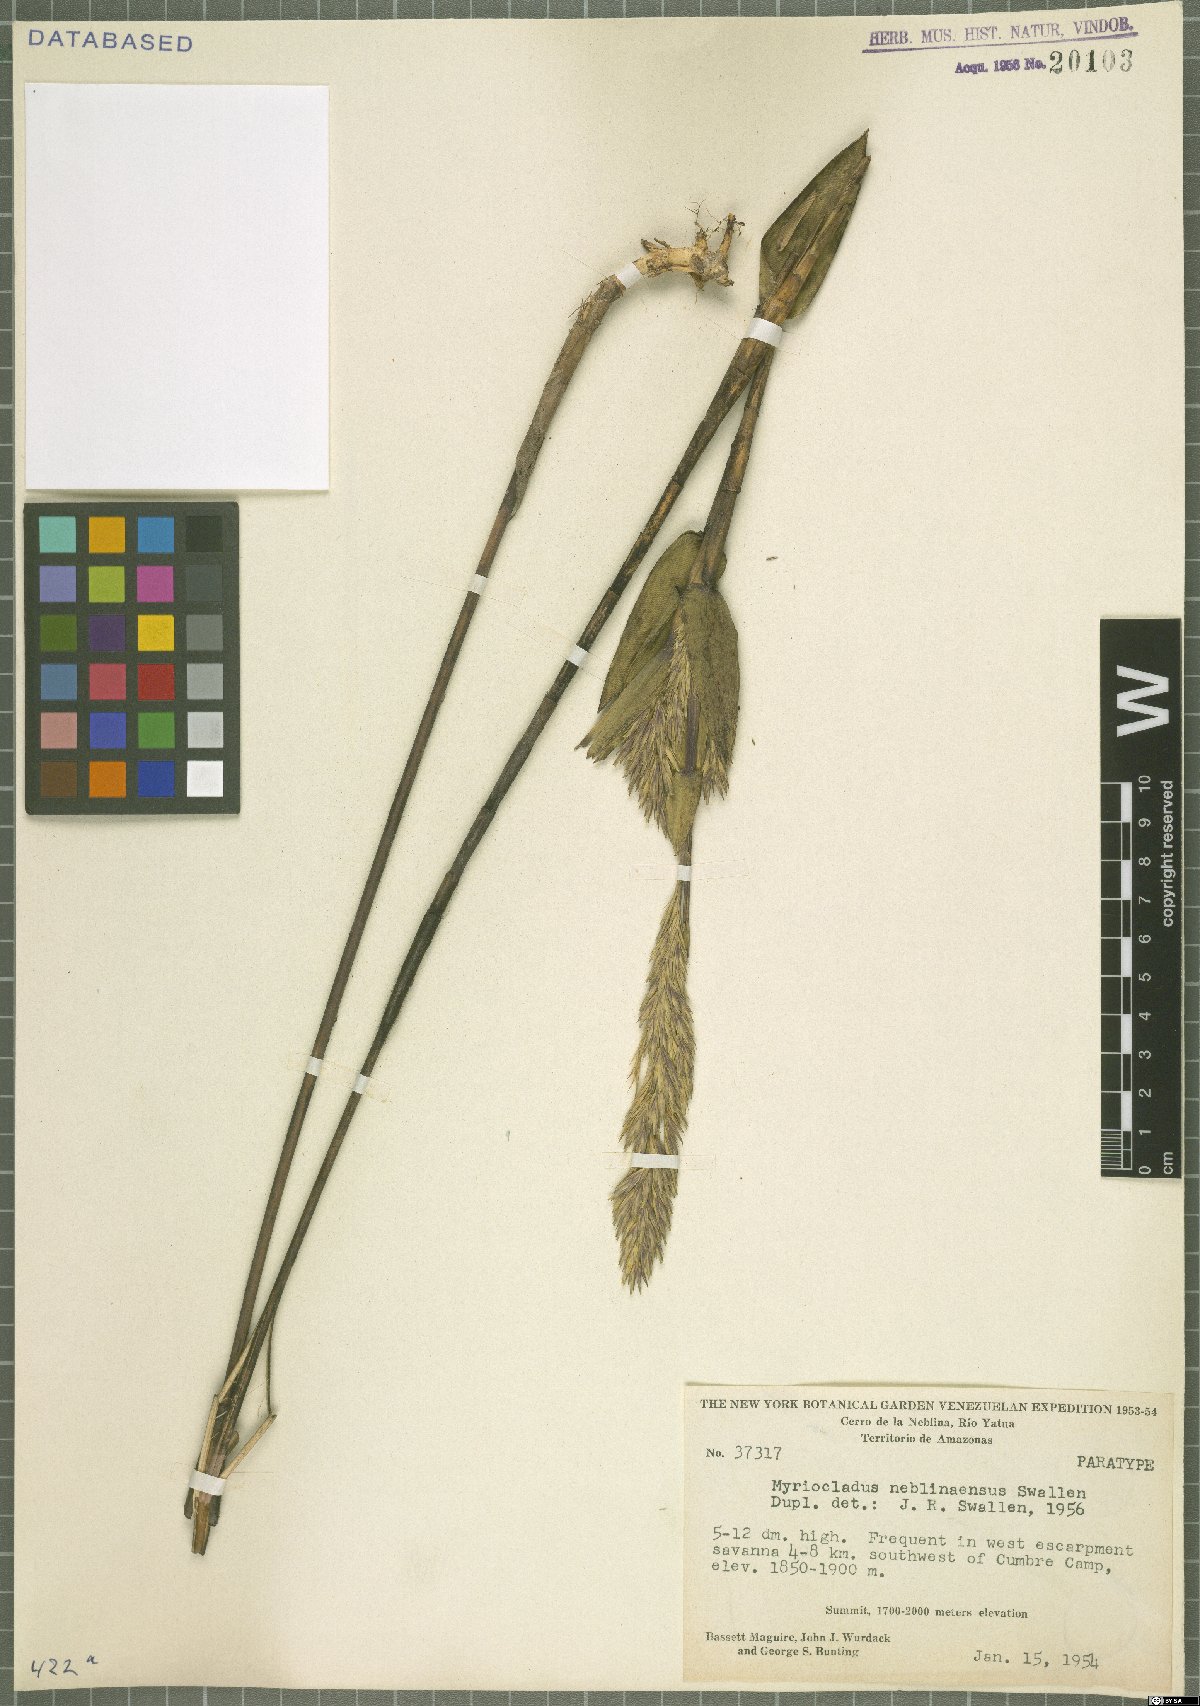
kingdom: Plantae
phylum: Tracheophyta
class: Liliopsida
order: Poales
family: Poaceae
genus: Myriocladus
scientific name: Myriocladus neblinaensis
